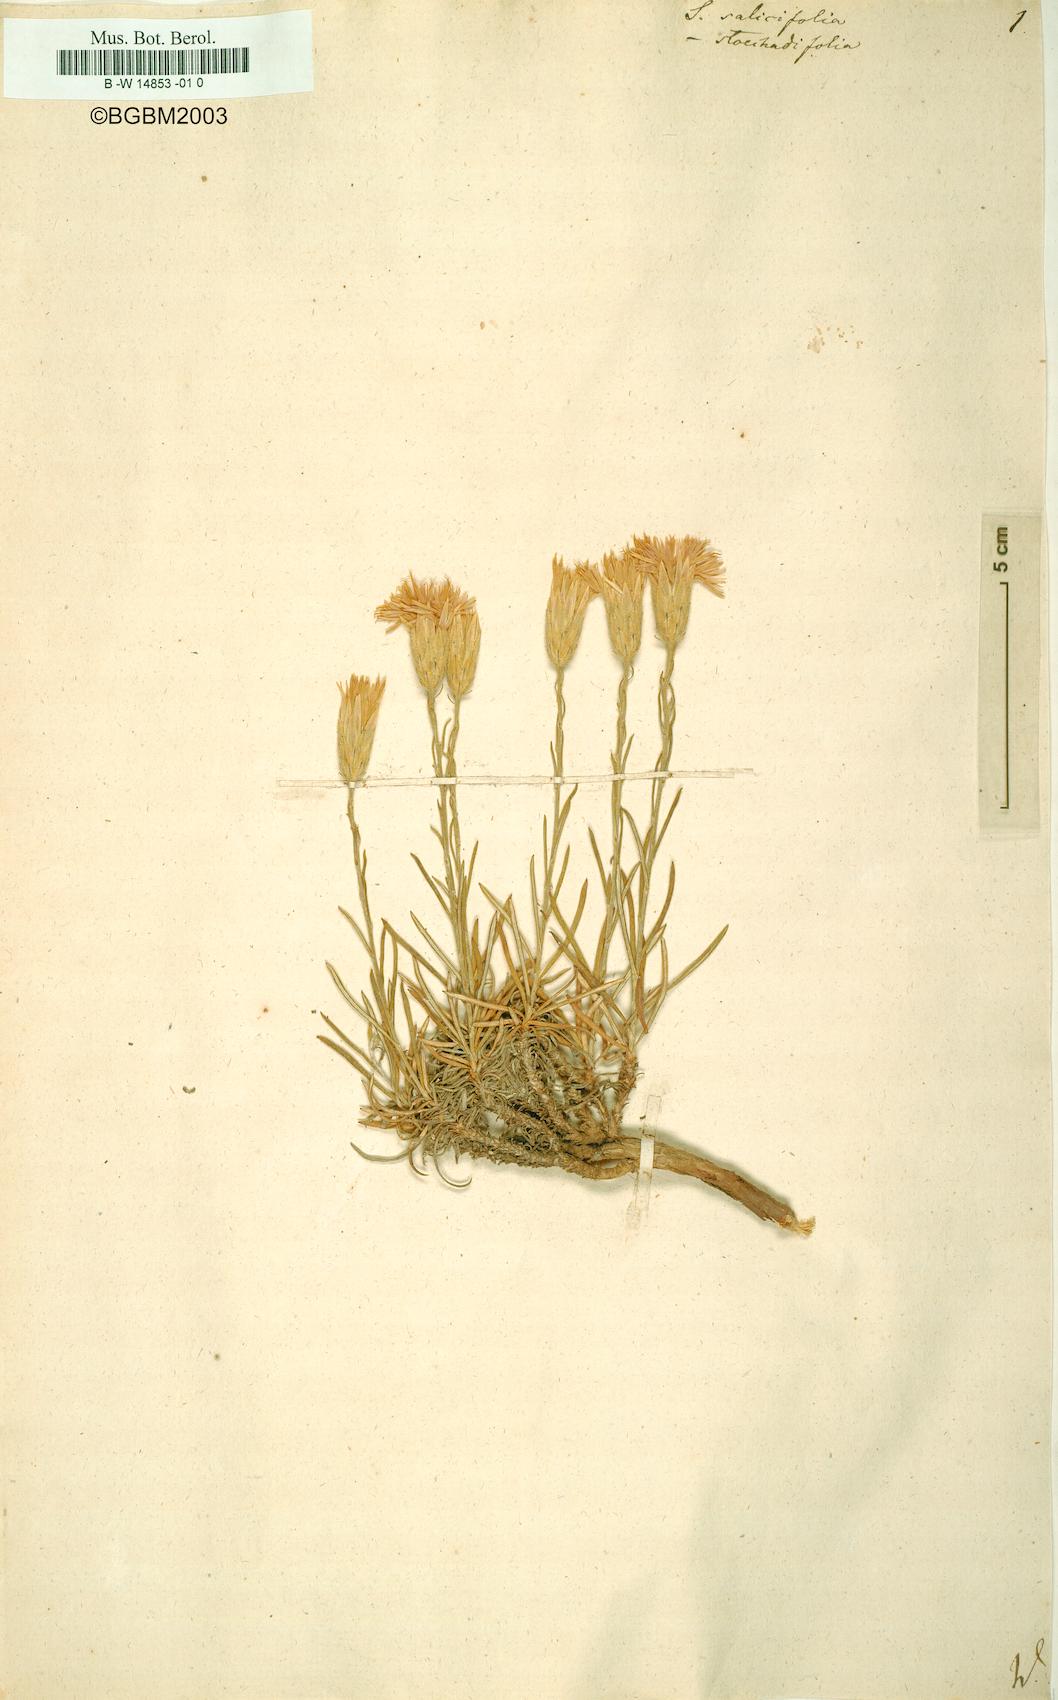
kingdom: Plantae
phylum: Tracheophyta
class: Magnoliopsida
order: Asterales
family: Asteraceae
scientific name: Asteraceae
